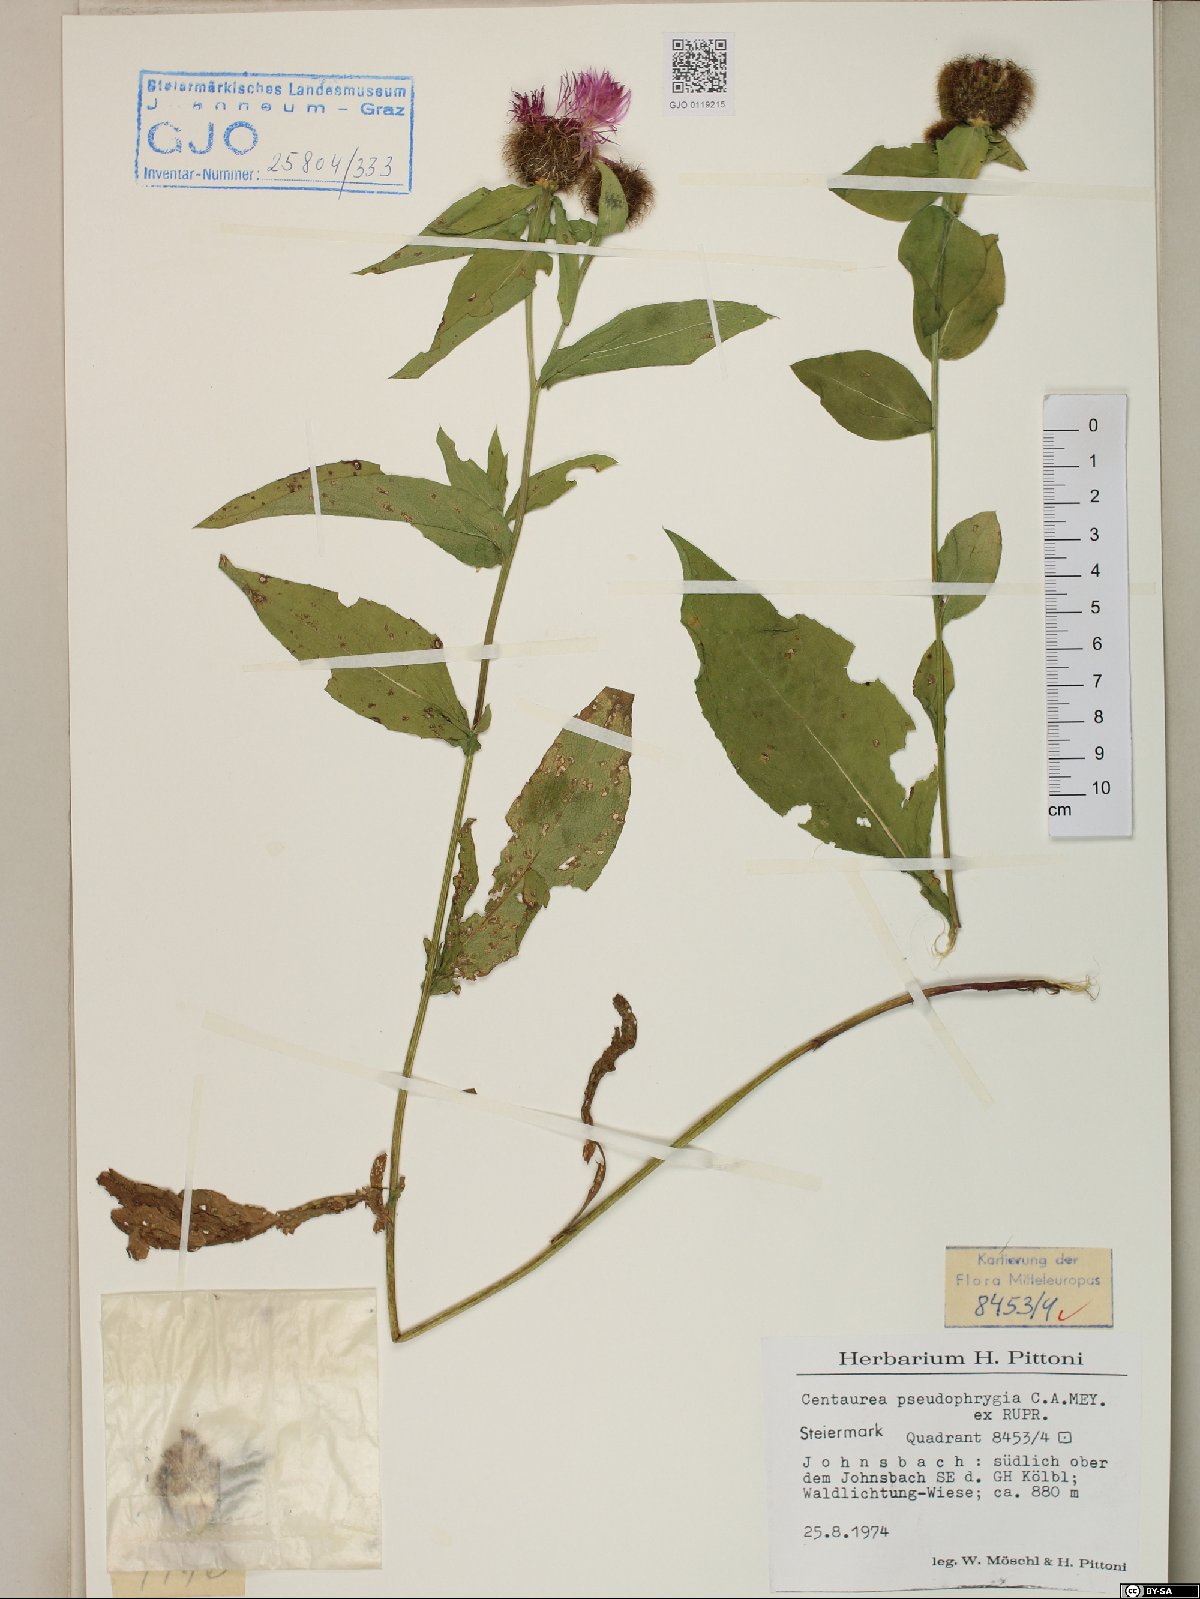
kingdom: Plantae
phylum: Tracheophyta
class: Magnoliopsida
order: Asterales
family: Asteraceae
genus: Centaurea
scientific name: Centaurea pseudophrygia
